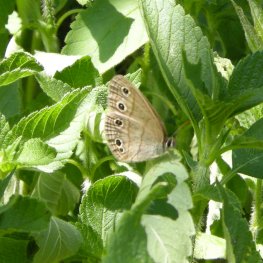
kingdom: Animalia
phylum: Arthropoda
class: Insecta
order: Lepidoptera
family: Nymphalidae
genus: Euptychia
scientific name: Euptychia cymela
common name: Little Wood Satyr
